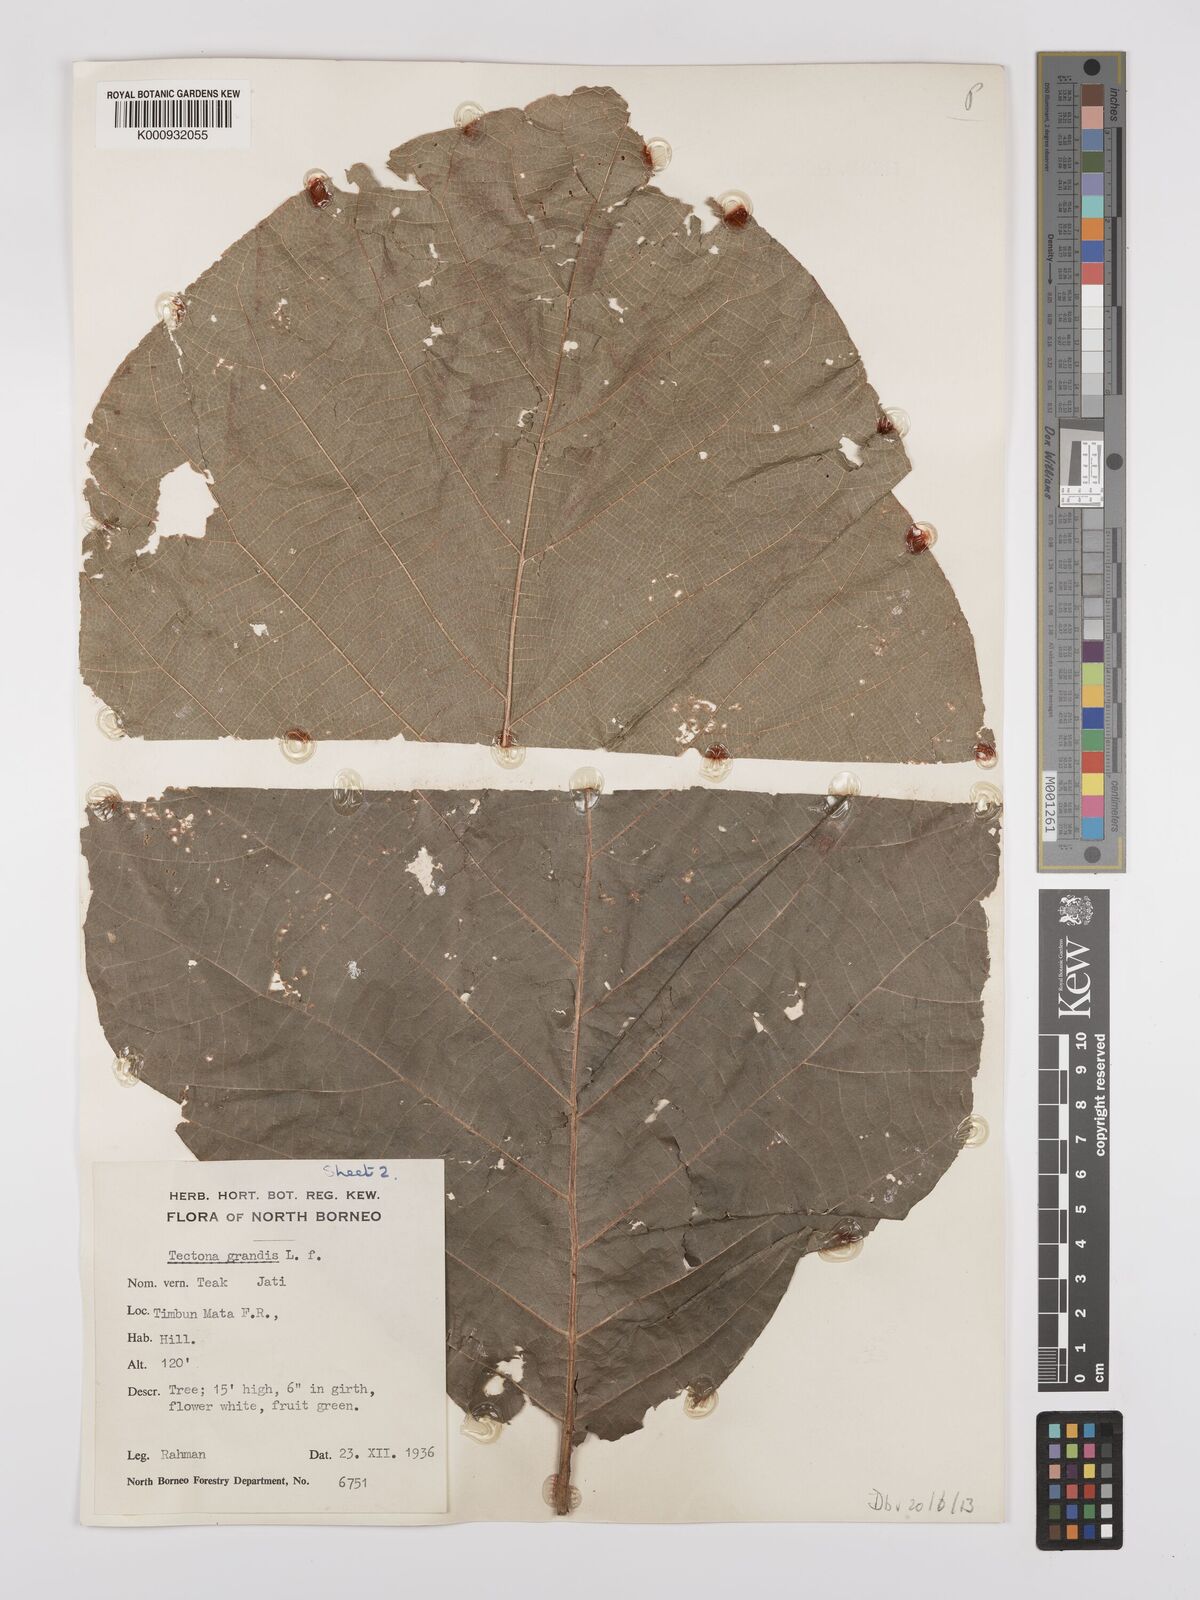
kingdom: Plantae
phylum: Tracheophyta
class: Magnoliopsida
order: Lamiales
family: Lamiaceae
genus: Tectona
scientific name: Tectona grandis
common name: Teak
